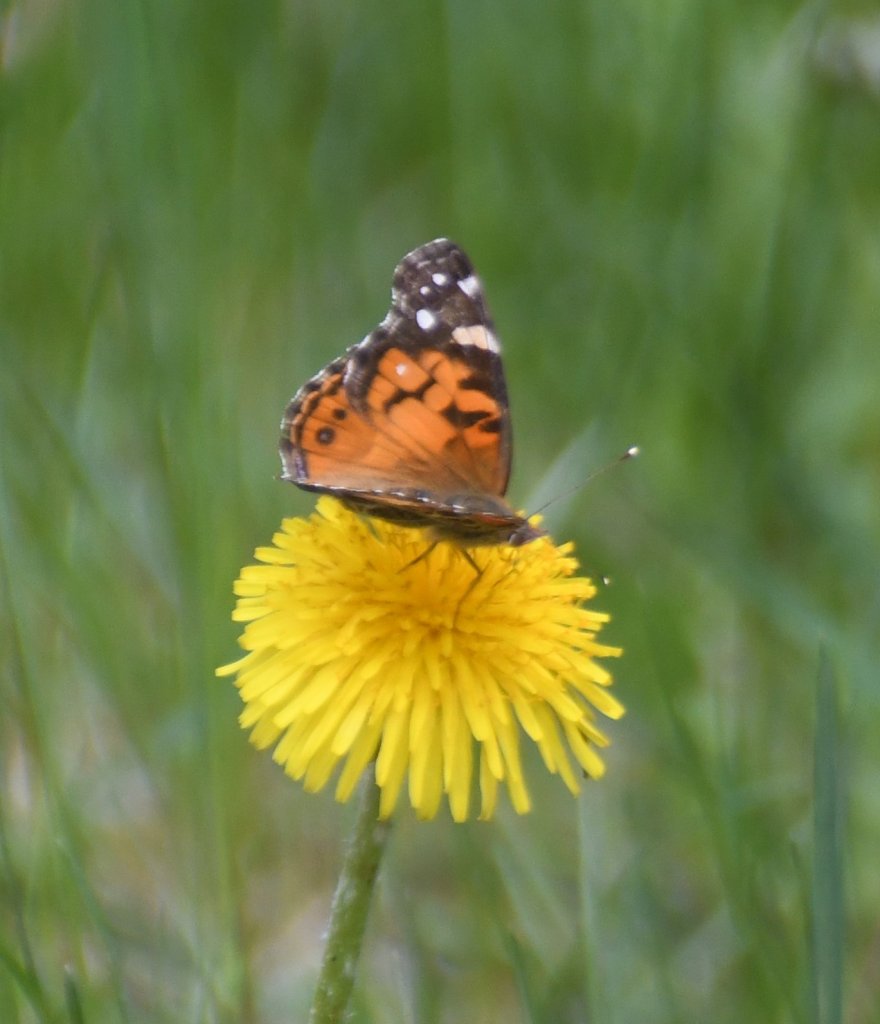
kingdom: Animalia
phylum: Arthropoda
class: Insecta
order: Lepidoptera
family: Nymphalidae
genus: Vanessa
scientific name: Vanessa virginiensis
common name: American Lady
